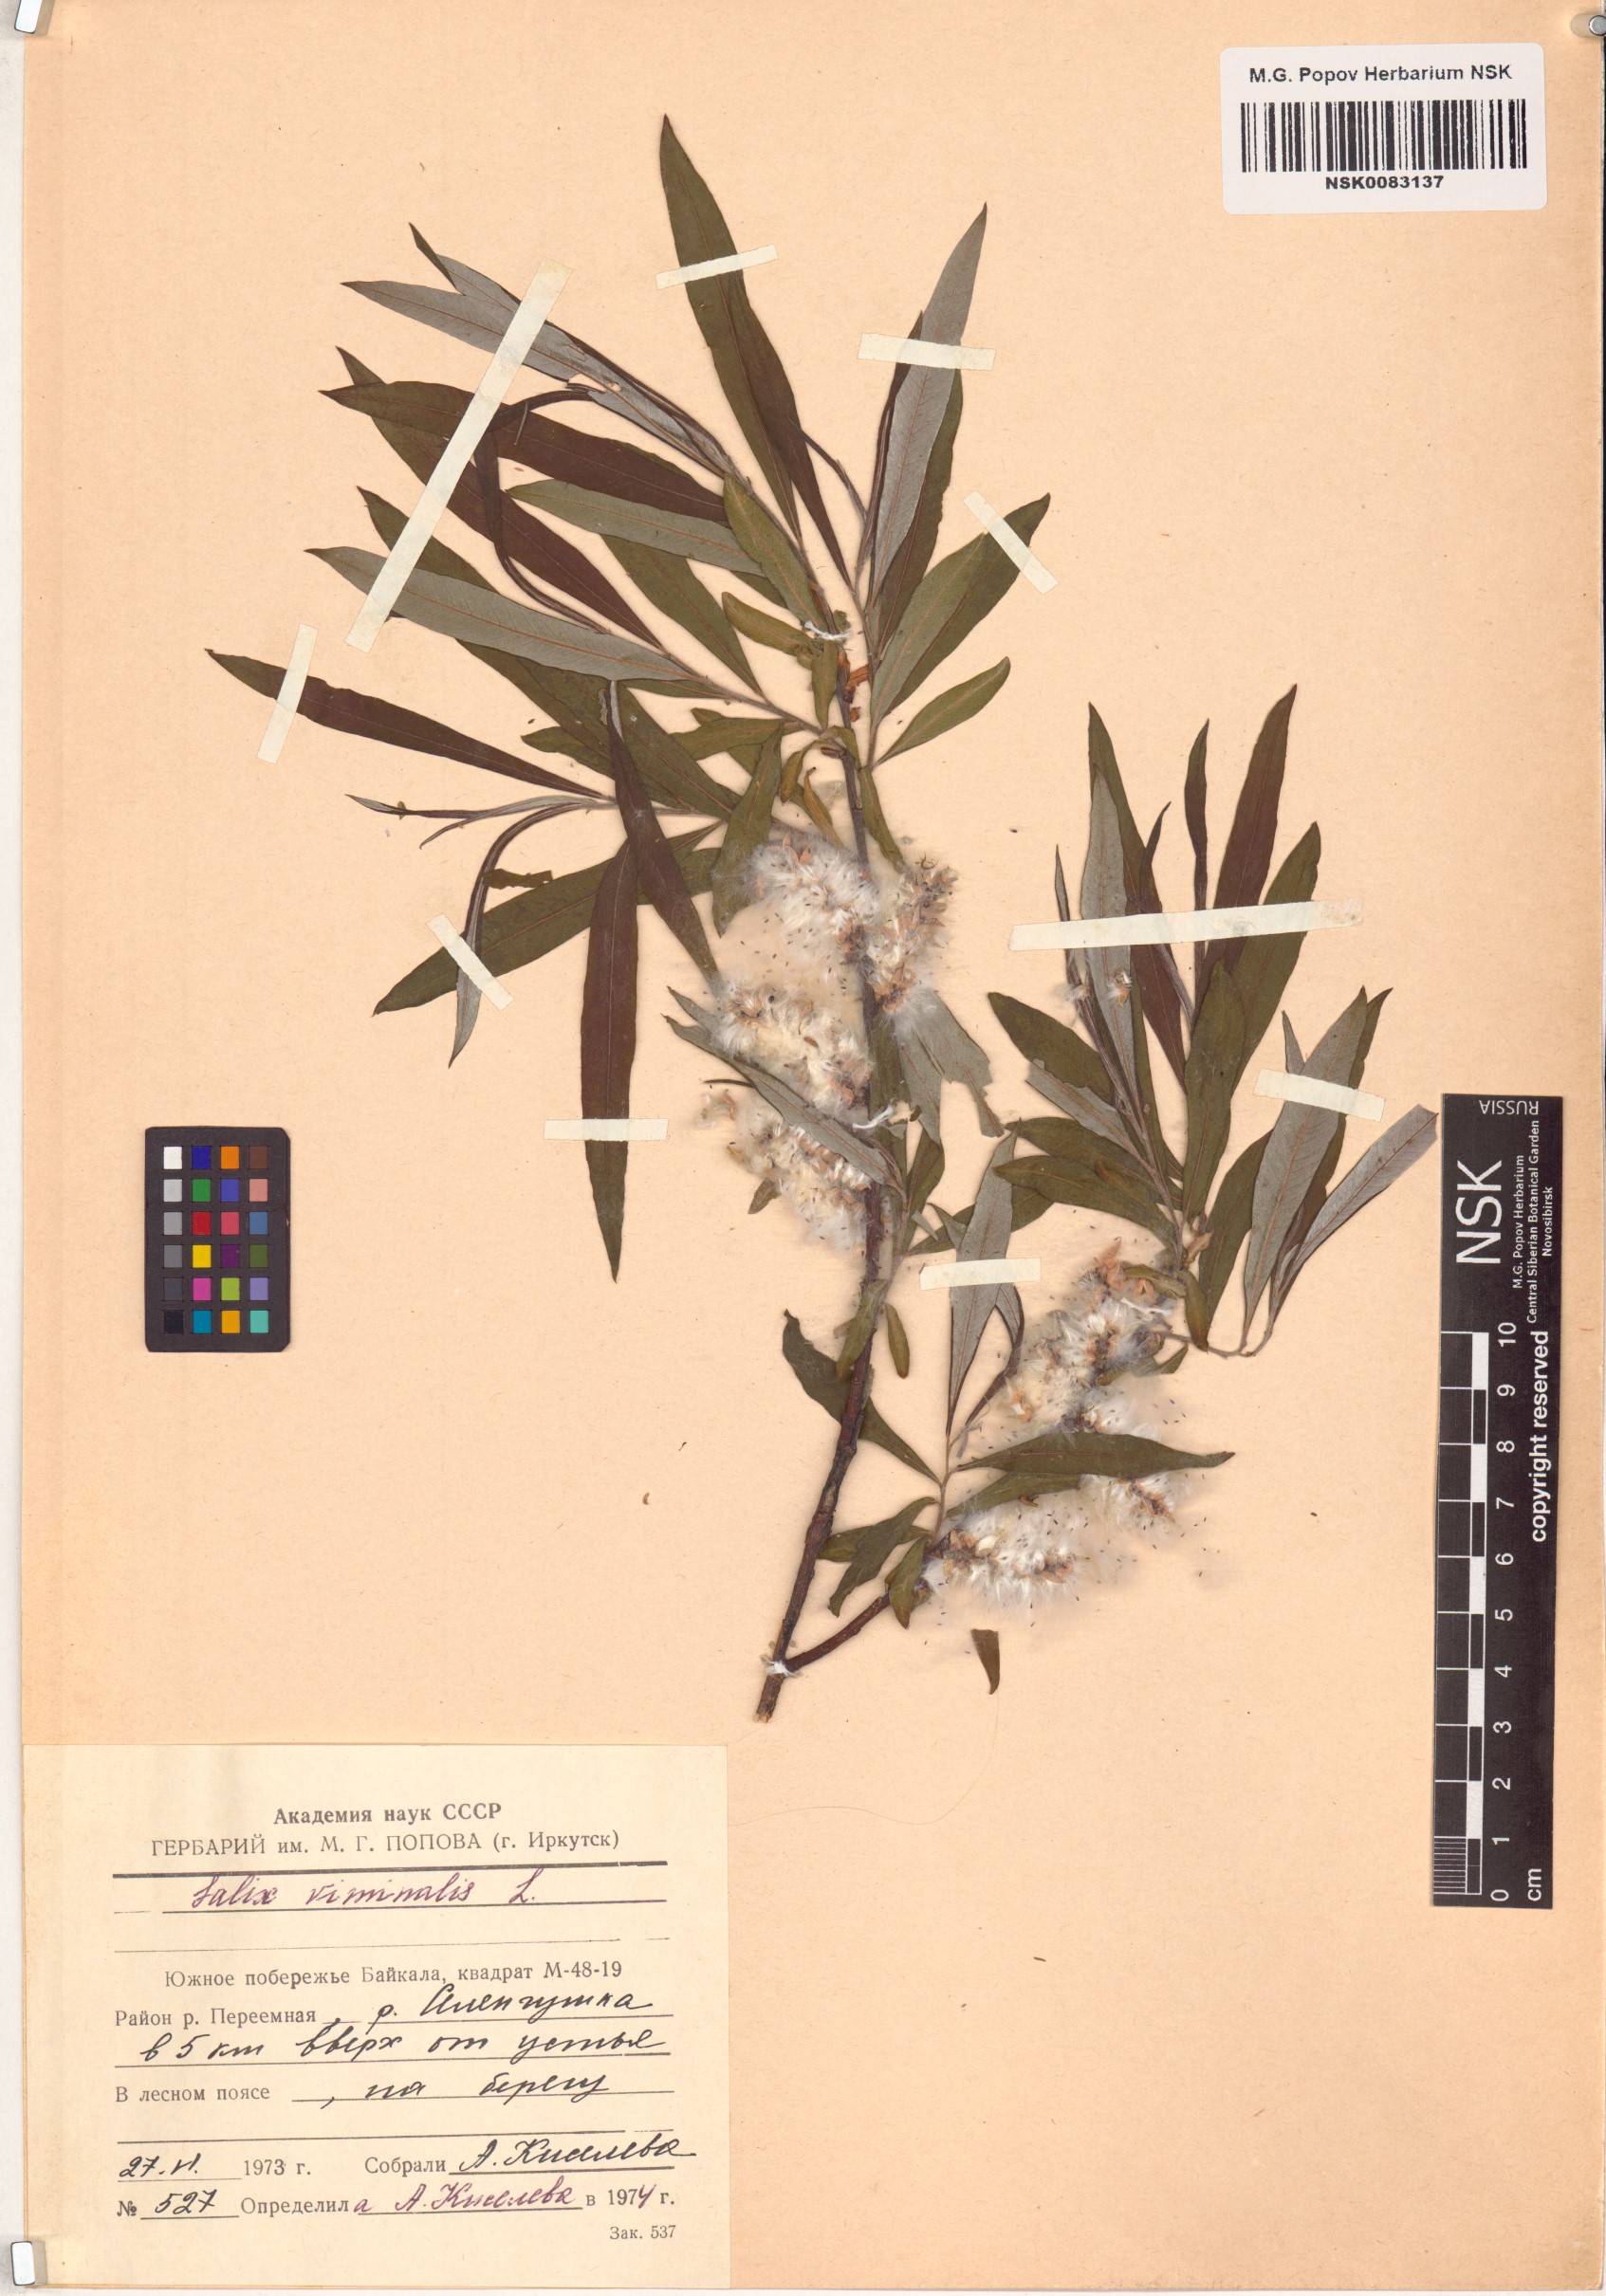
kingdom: Plantae
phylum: Tracheophyta
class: Magnoliopsida
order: Malpighiales
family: Salicaceae
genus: Salix
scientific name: Salix viminalis
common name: Osier
